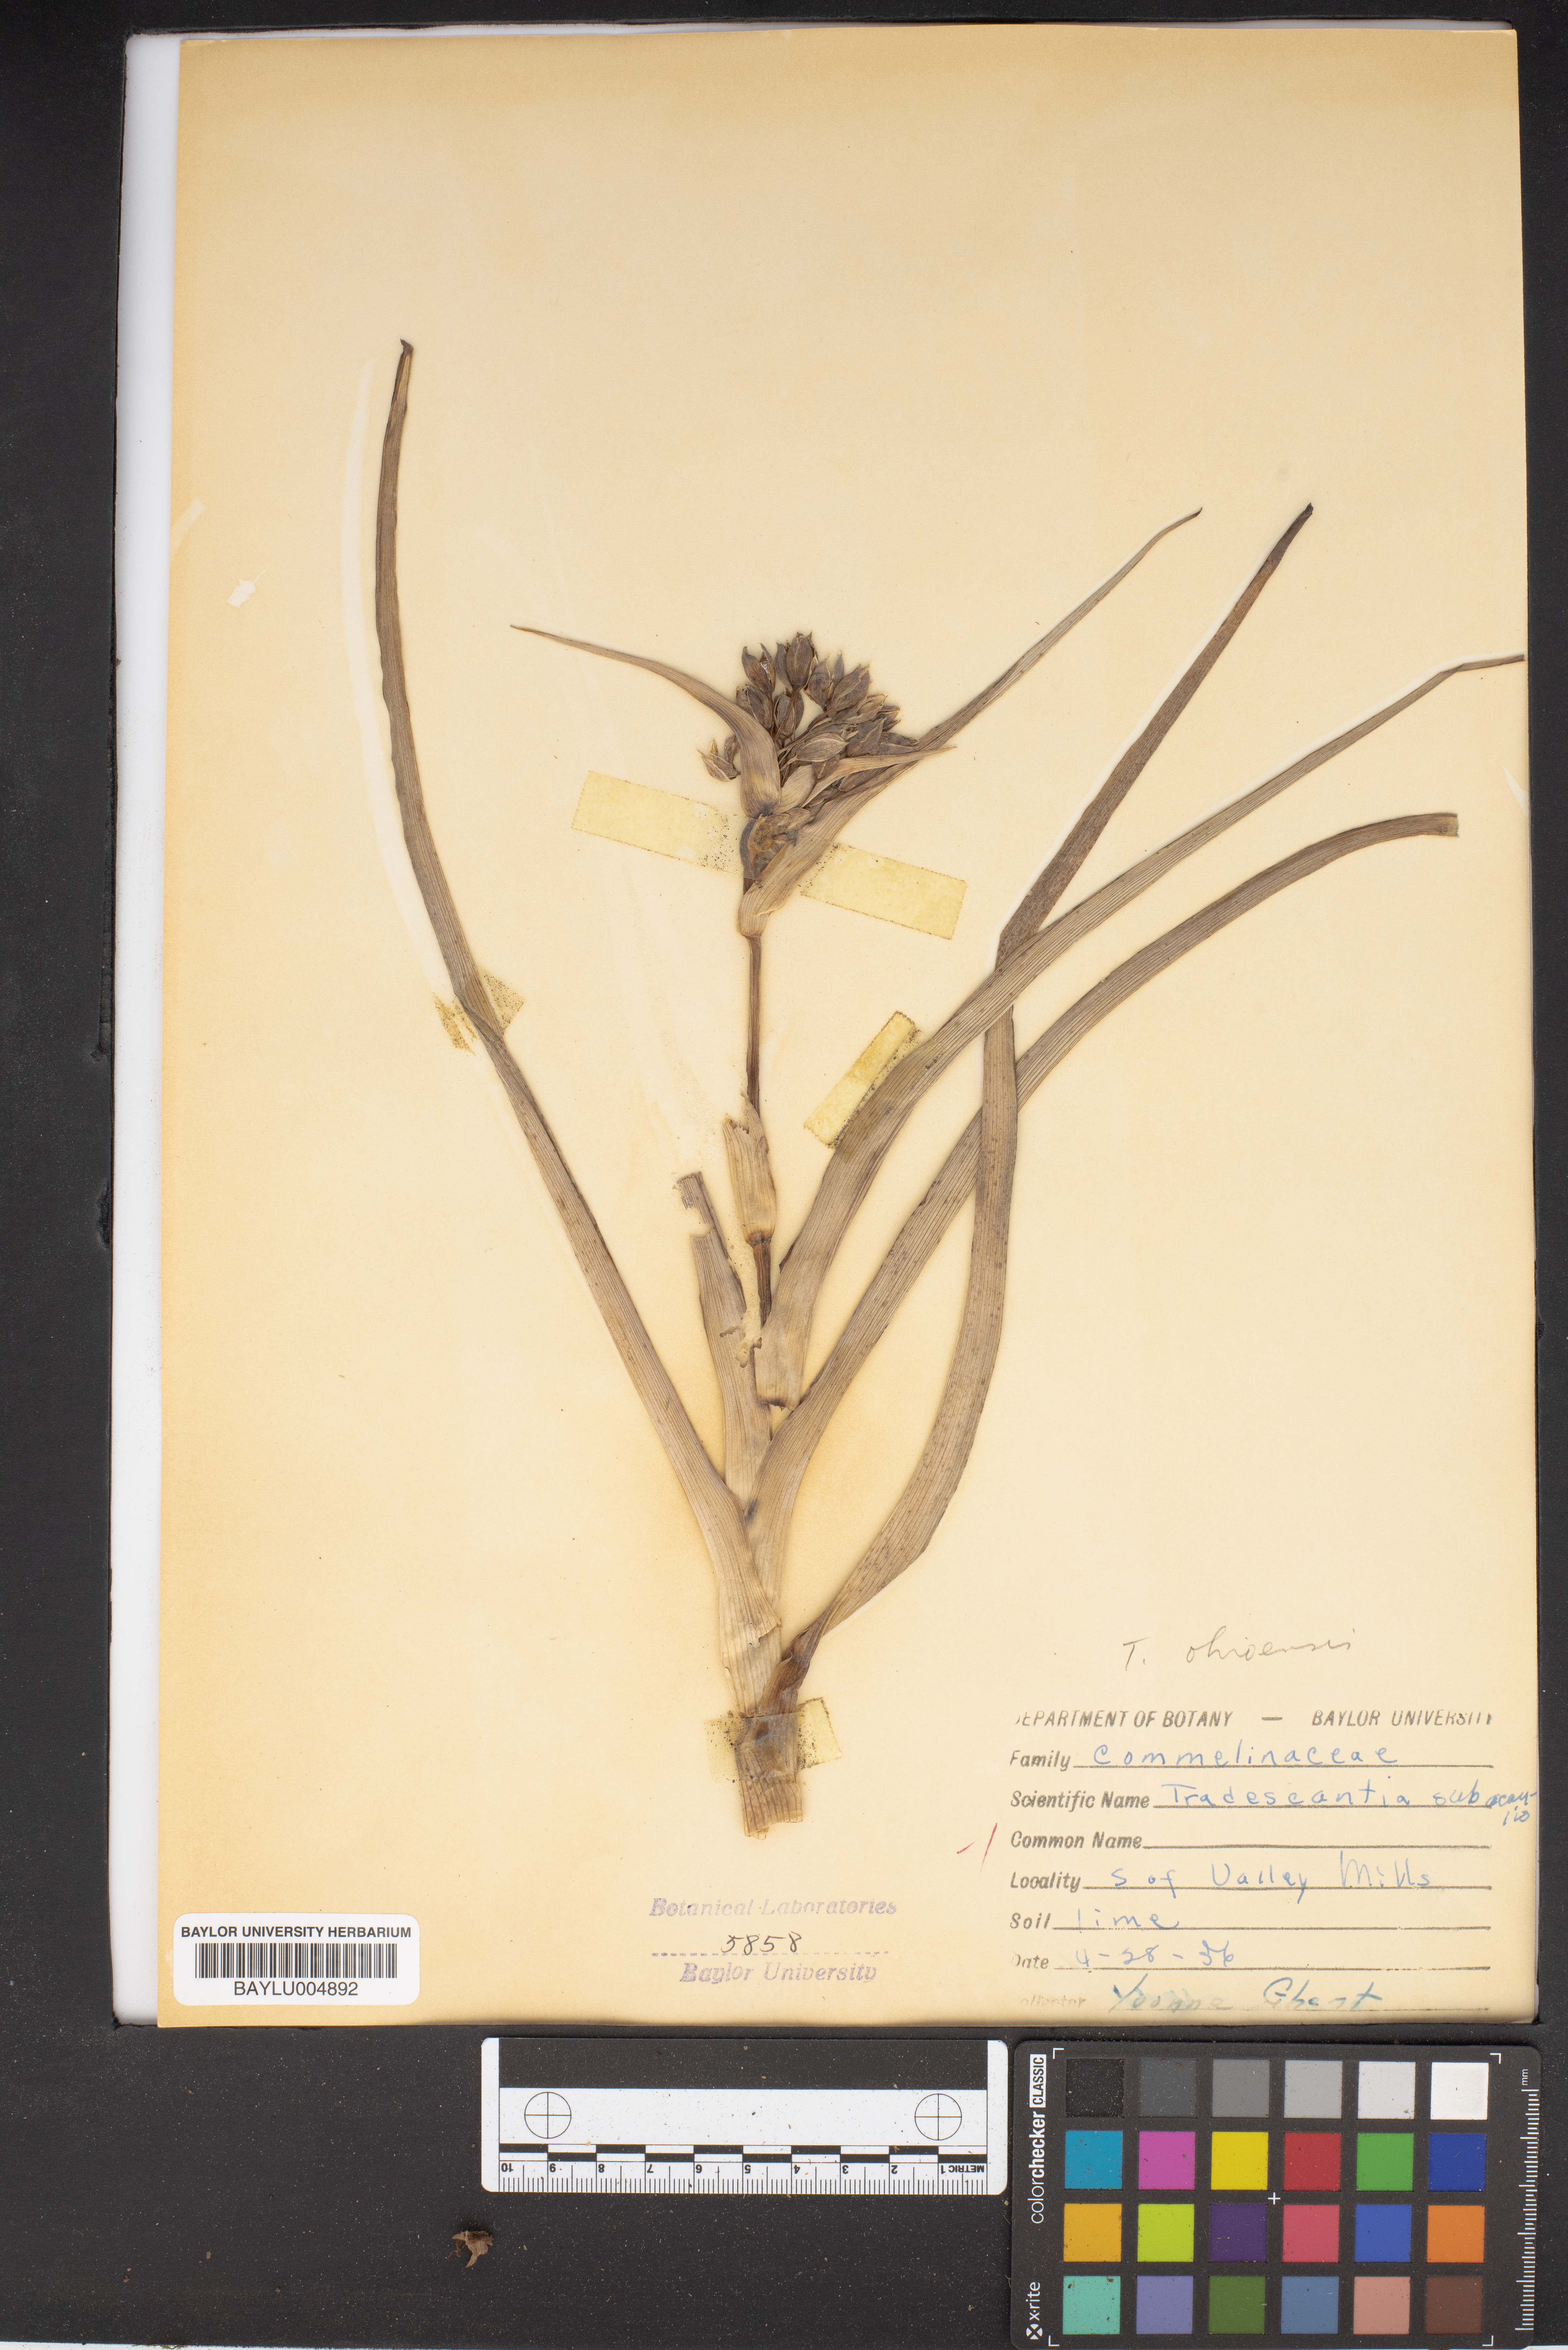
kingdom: Plantae
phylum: Tracheophyta
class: Liliopsida
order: Commelinales
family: Commelinaceae
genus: Tradescantia
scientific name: Tradescantia subacaulis
